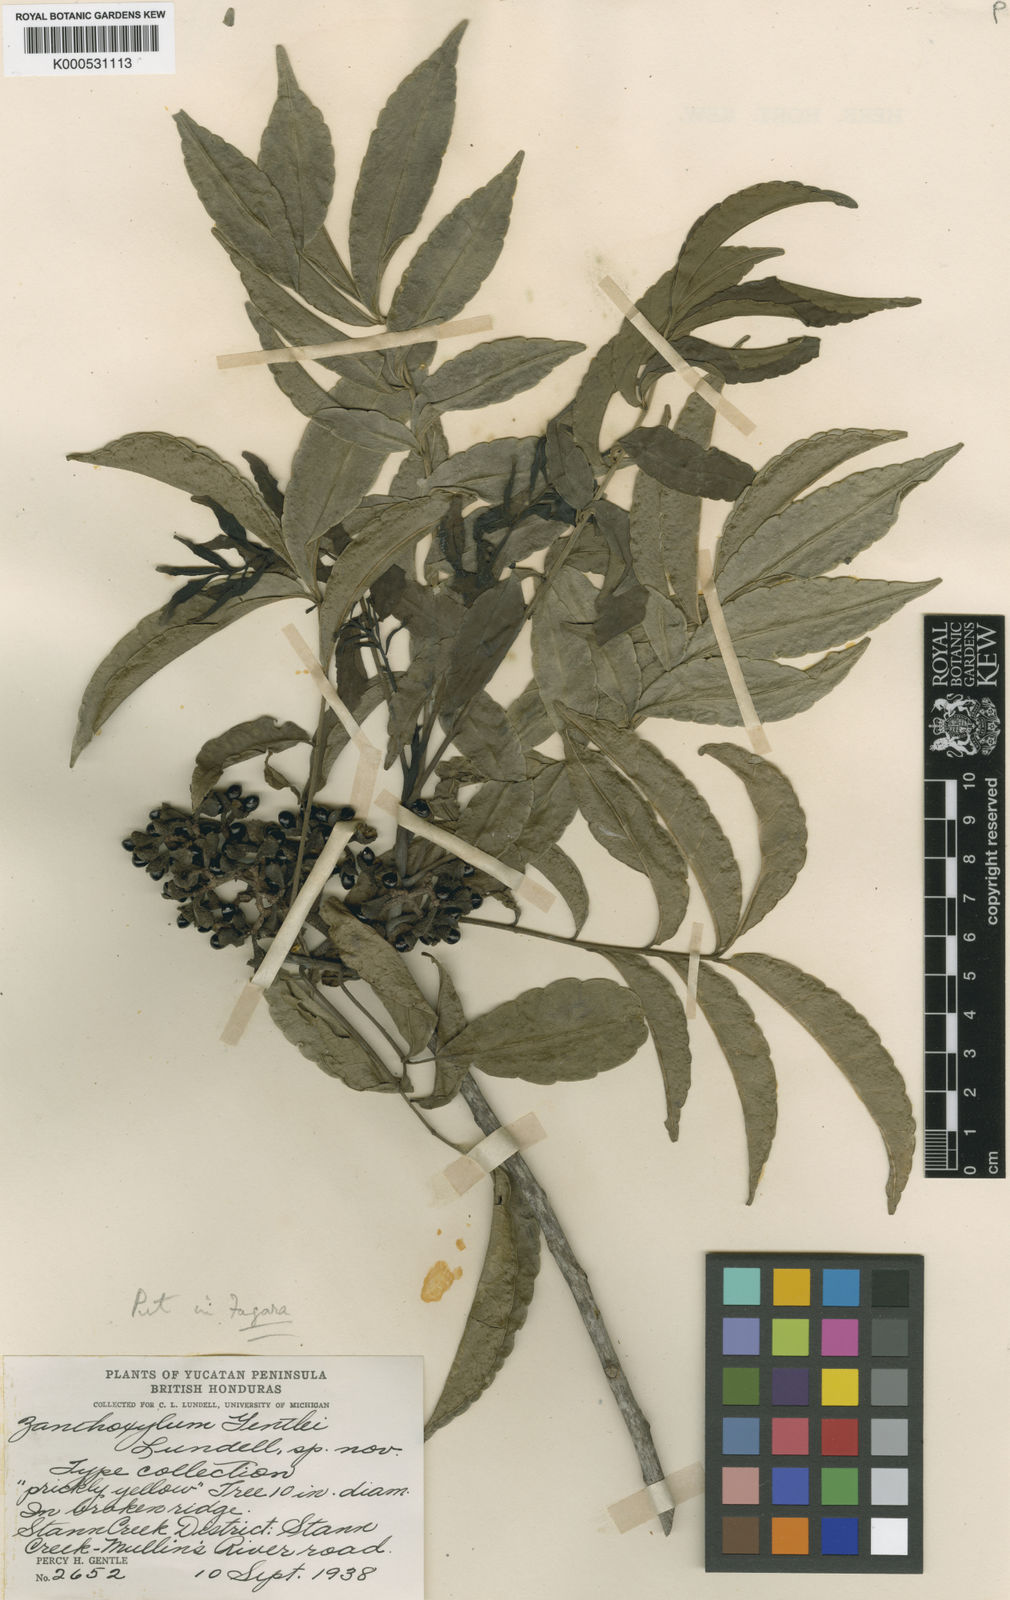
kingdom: Plantae
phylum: Tracheophyta
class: Magnoliopsida
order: Sapindales
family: Rutaceae
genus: Zanthoxylum
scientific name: Zanthoxylum caribaeum
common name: Prickly yellow
